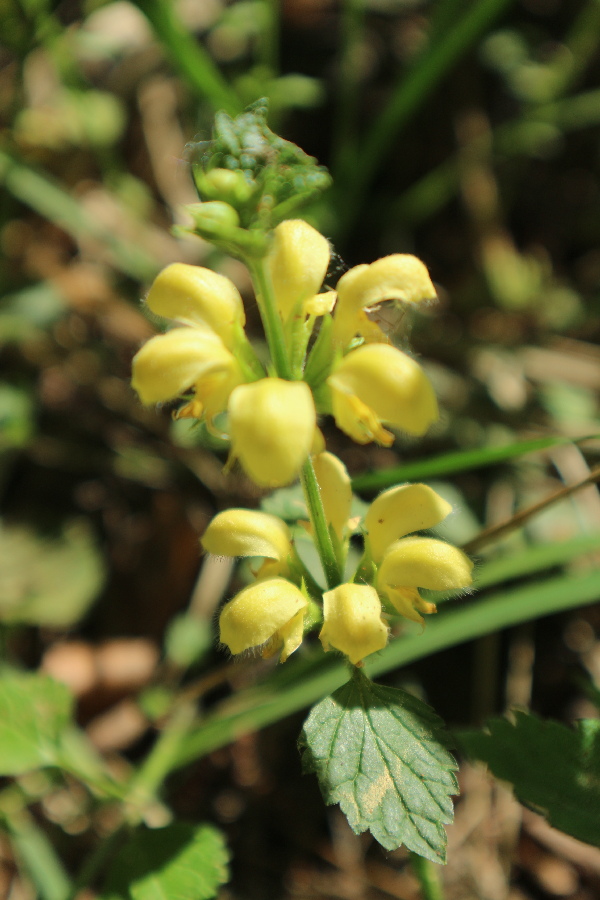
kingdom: Plantae
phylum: Tracheophyta
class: Magnoliopsida
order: Lamiales
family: Lamiaceae
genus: Lamium
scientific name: Lamium galeobdolon
